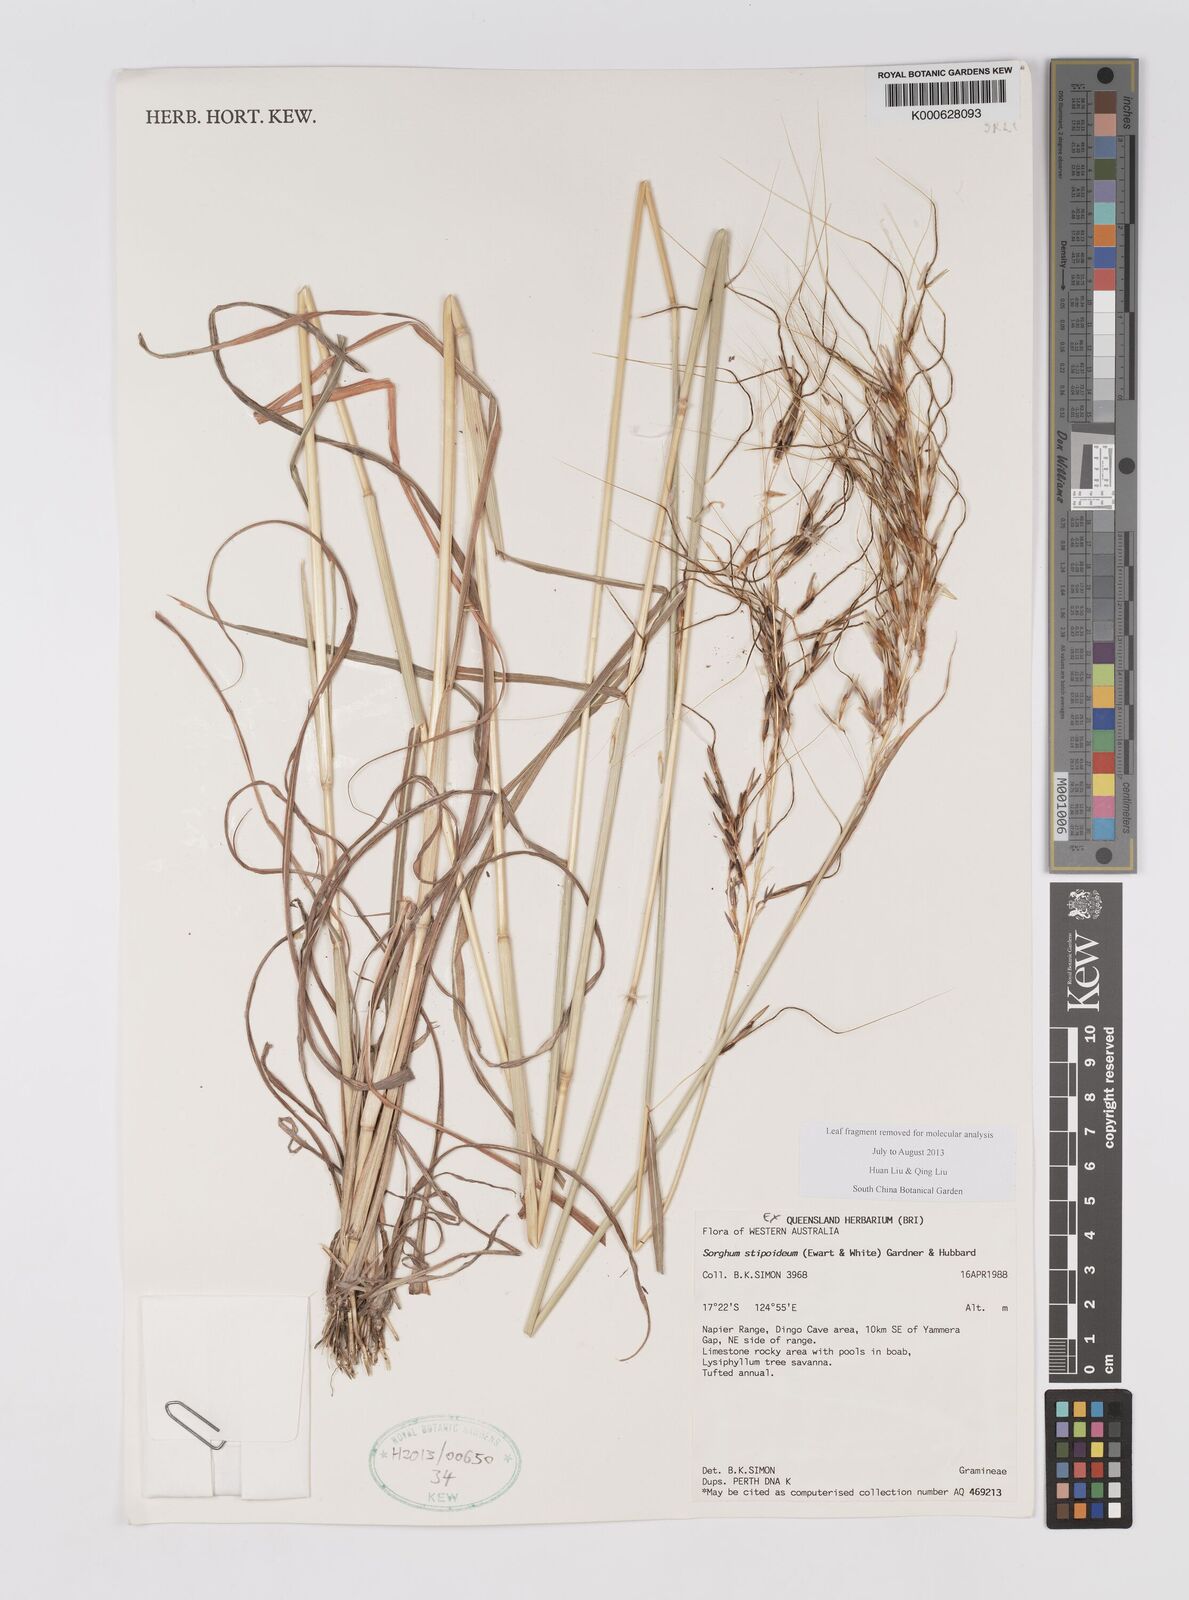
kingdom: Plantae
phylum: Tracheophyta
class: Liliopsida
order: Poales
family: Poaceae
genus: Sarga
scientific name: Sarga stipoidea
